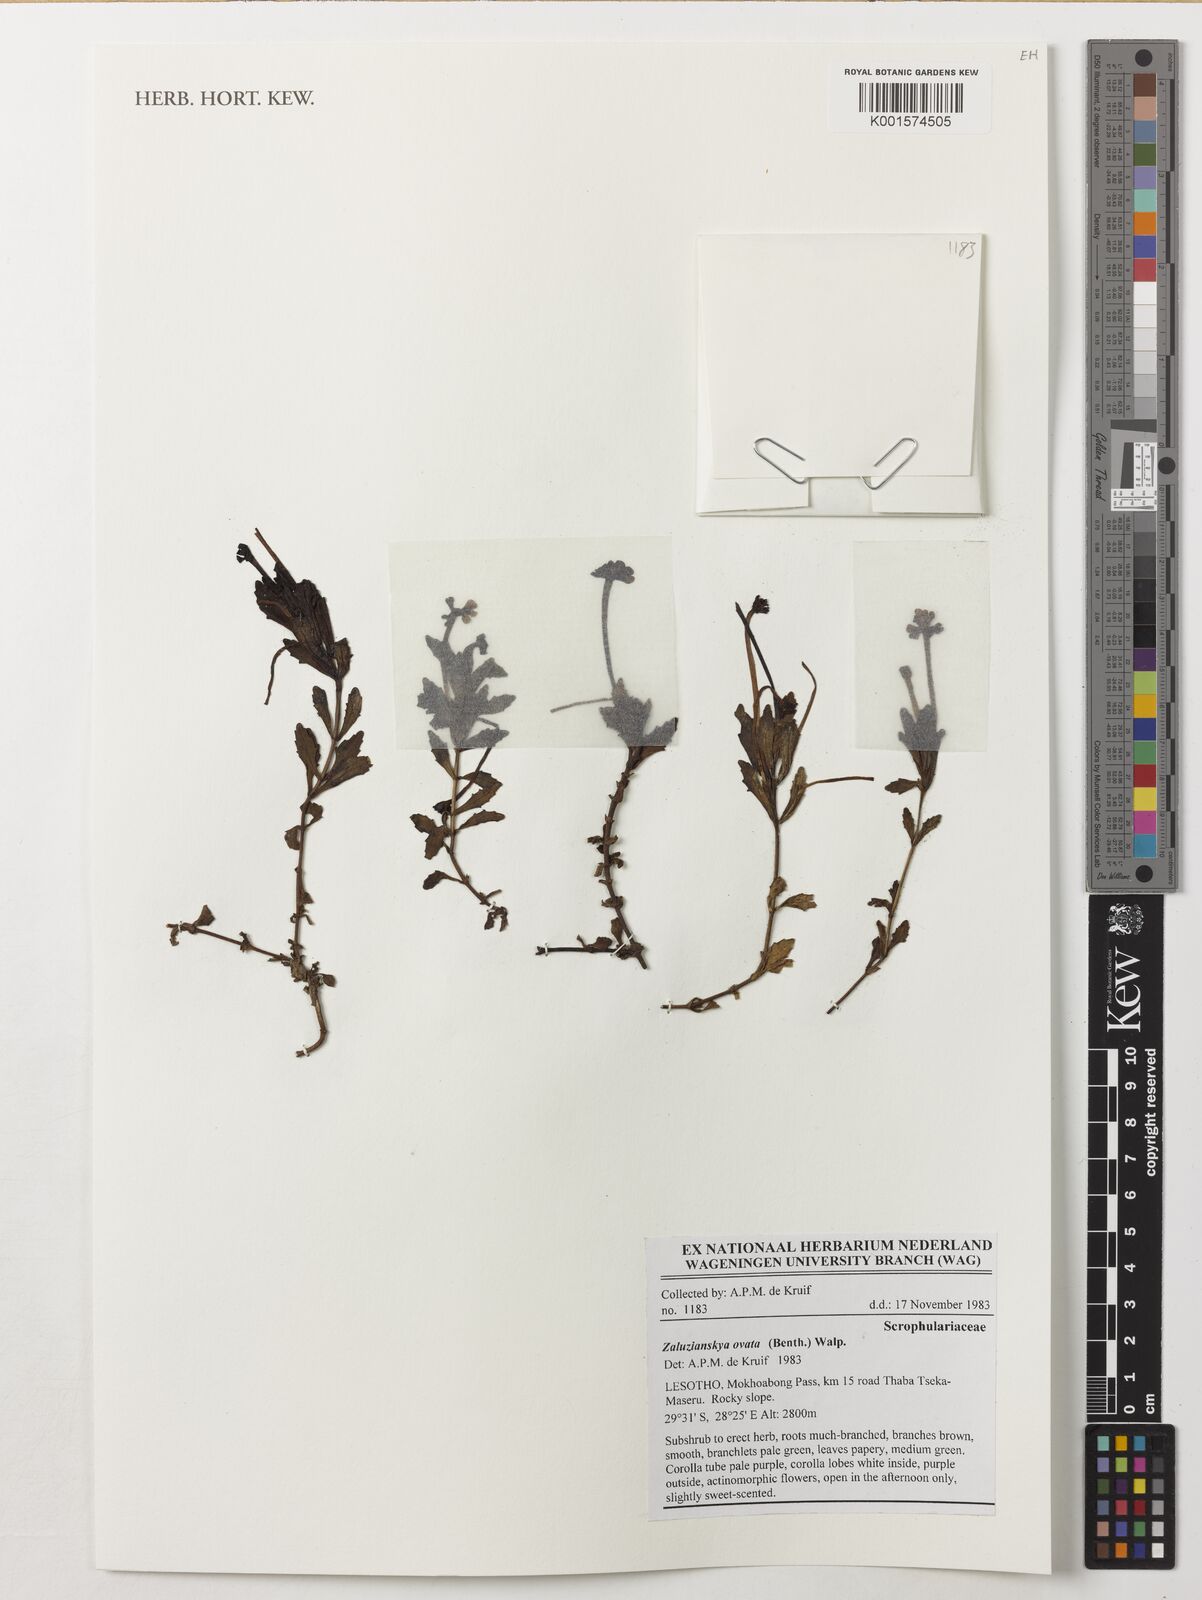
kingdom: Plantae
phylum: Tracheophyta
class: Magnoliopsida
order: Lamiales
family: Scrophulariaceae
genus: Zaluzianskya
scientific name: Zaluzianskya ovata
